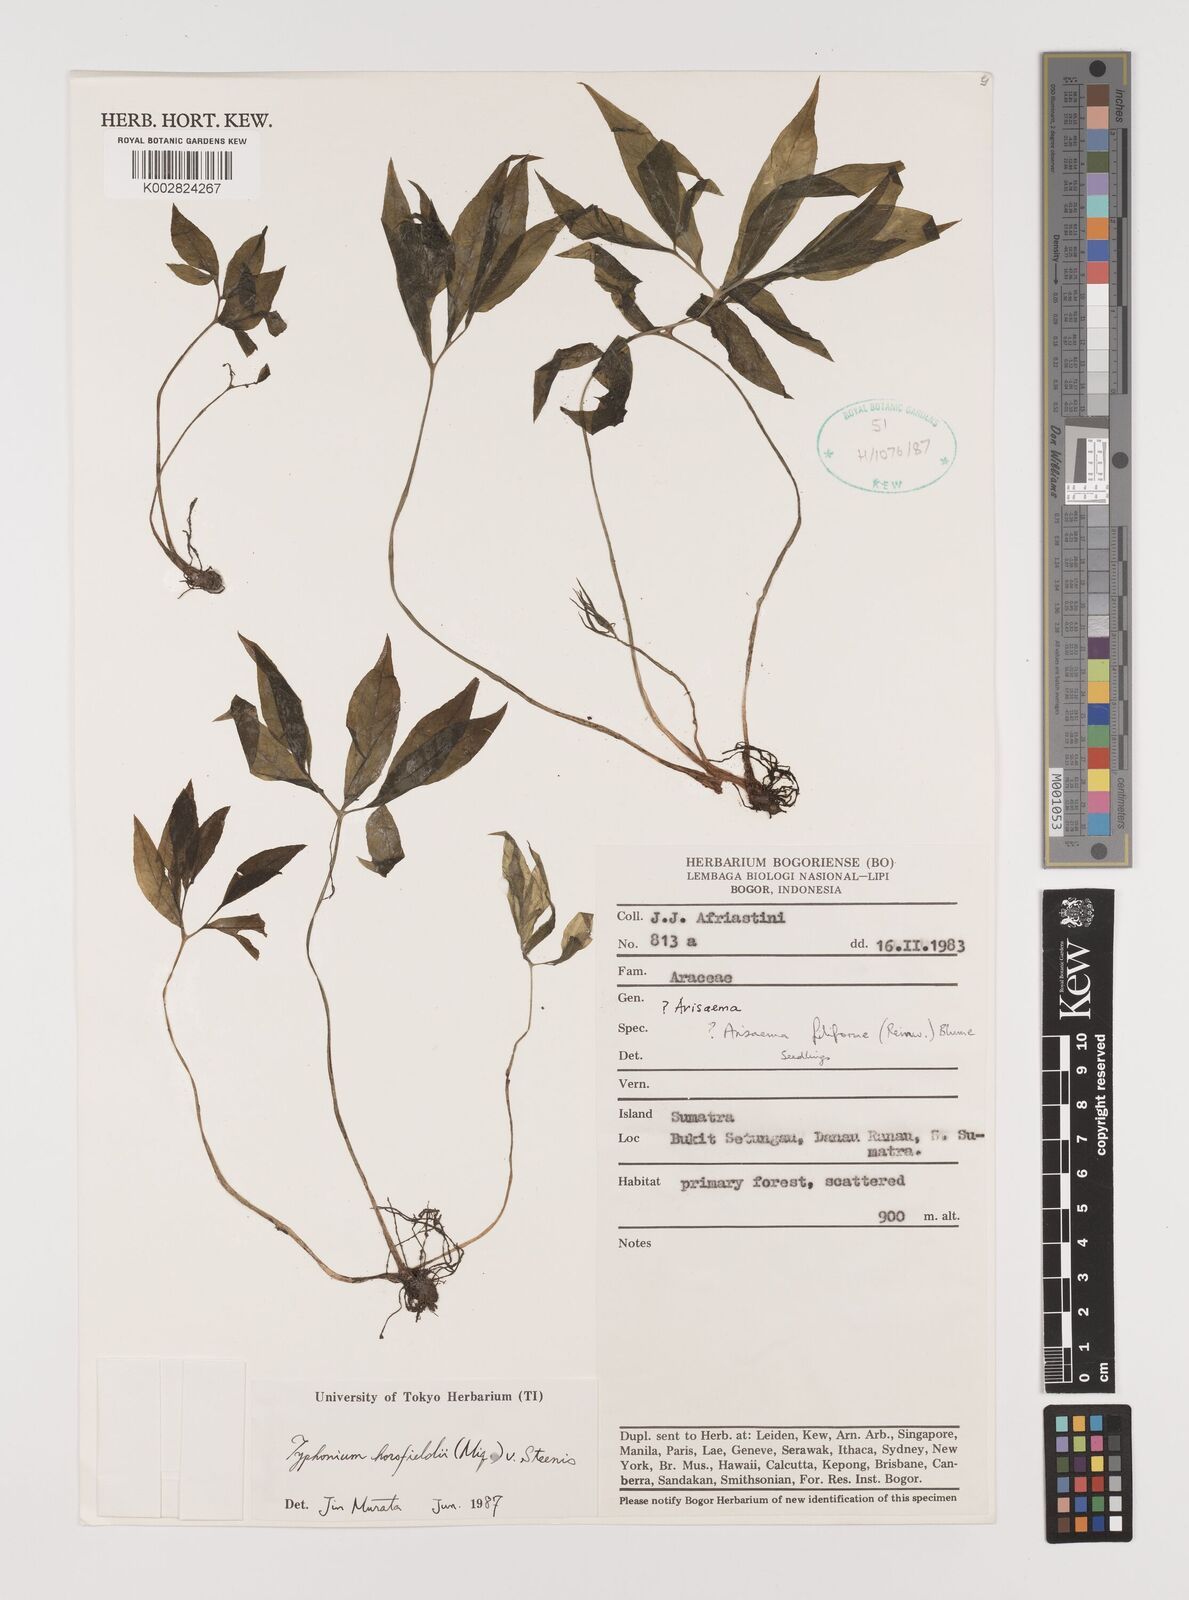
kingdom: Plantae
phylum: Tracheophyta
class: Liliopsida
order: Alismatales
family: Araceae
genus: Sauromatum
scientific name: Sauromatum horsfieldii
